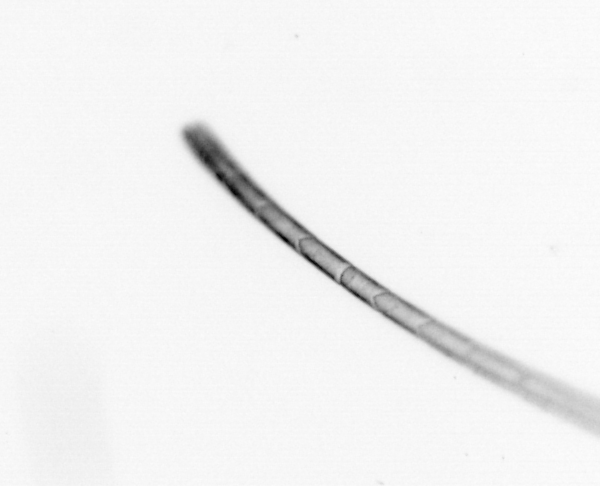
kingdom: Chromista
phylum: Ochrophyta
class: Bacillariophyceae
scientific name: Bacillariophyceae
